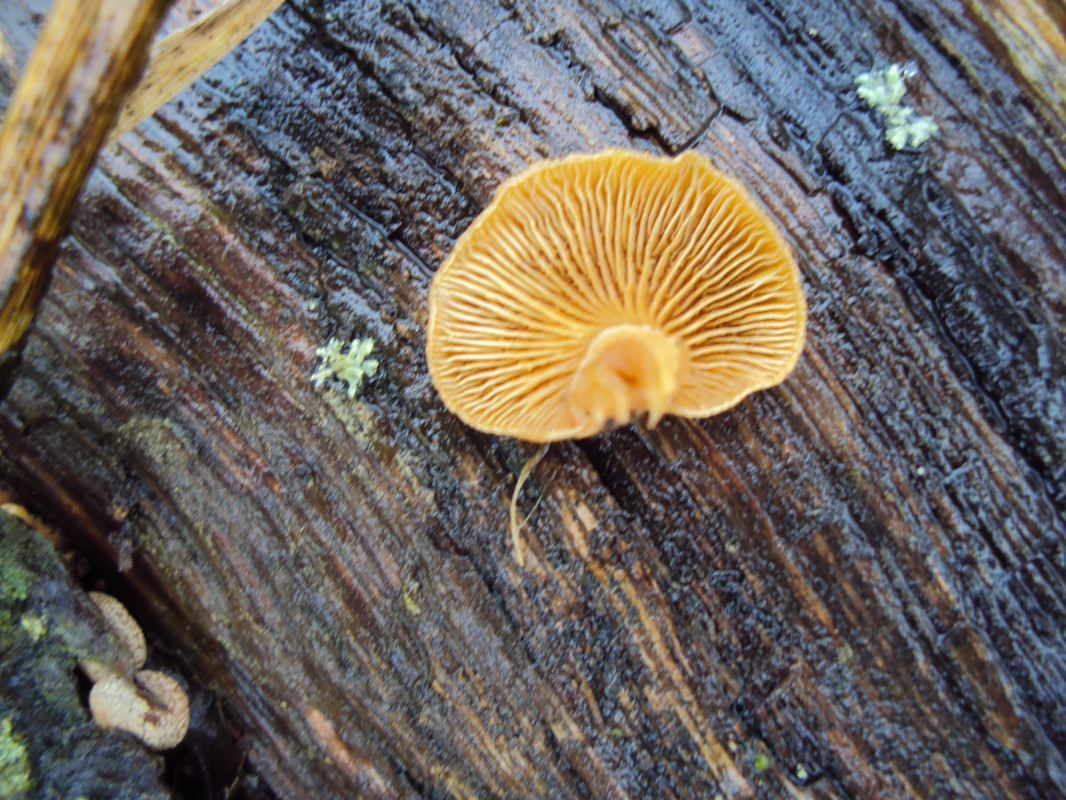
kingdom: Fungi
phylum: Basidiomycota
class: Agaricomycetes
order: Agaricales
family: Mycenaceae
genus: Panellus
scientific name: Panellus stipticus
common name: kliddet epaulethat
